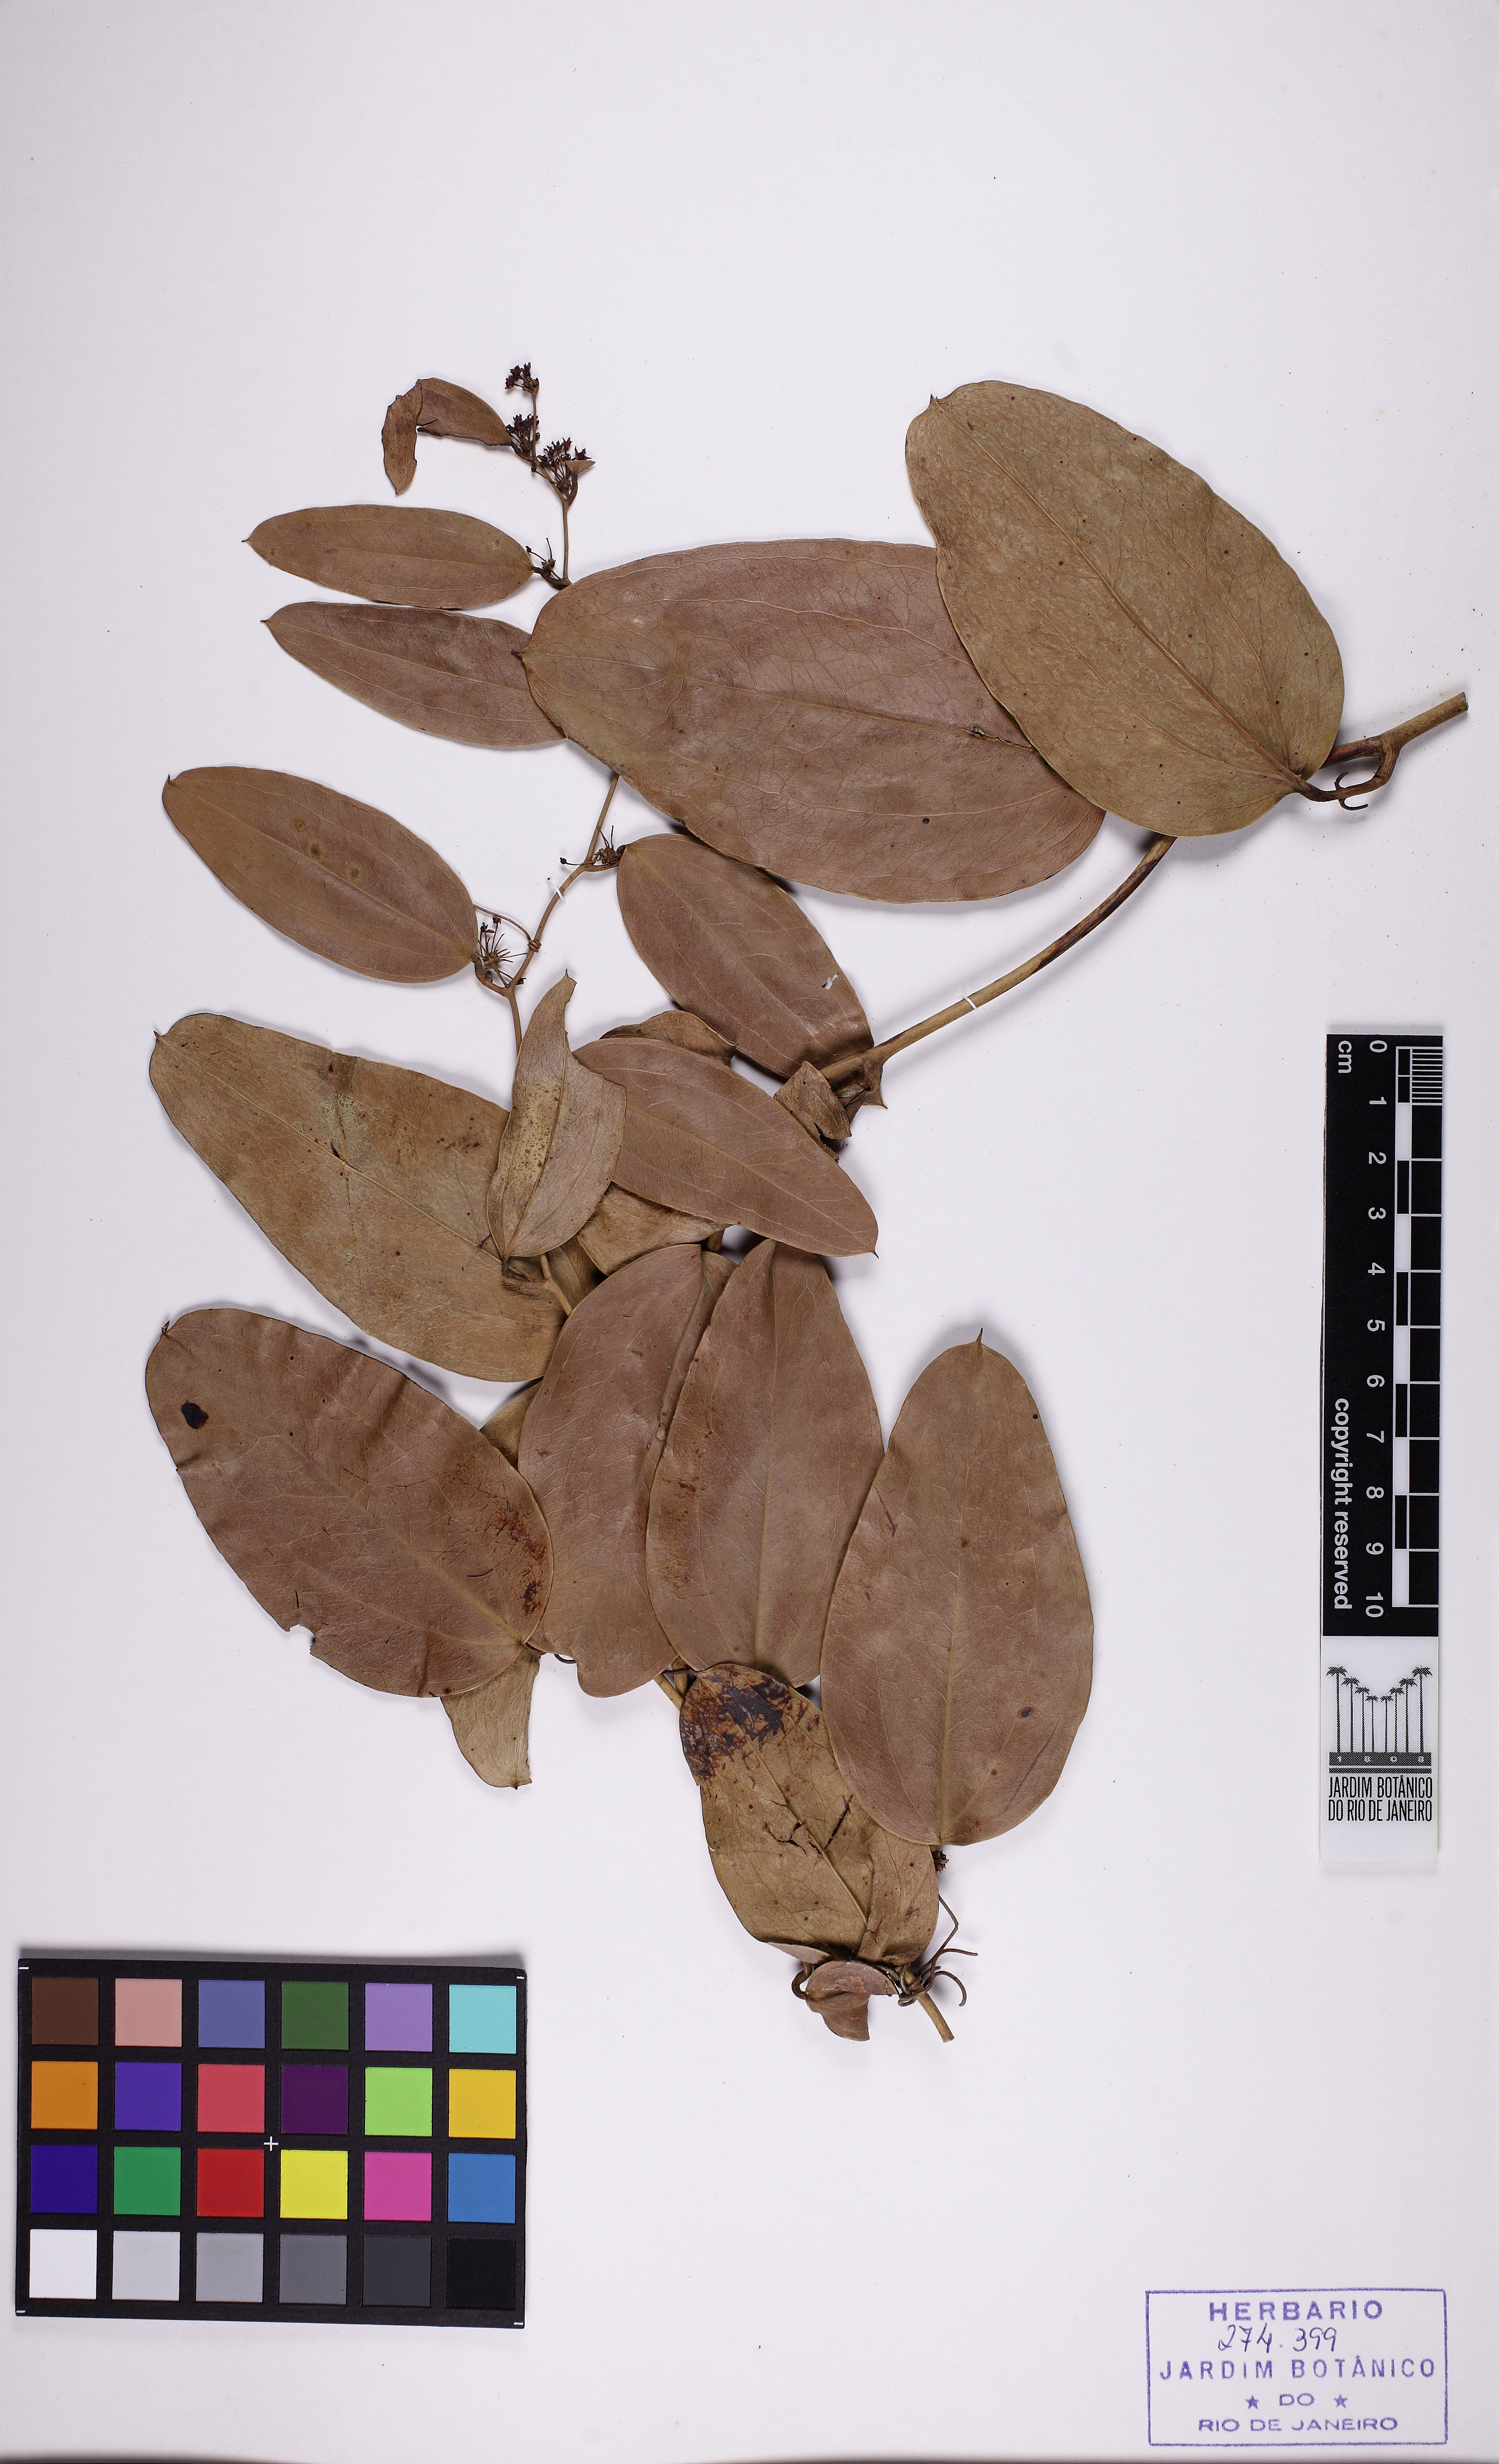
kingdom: Plantae
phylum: Tracheophyta
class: Liliopsida
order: Liliales
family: Smilacaceae
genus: Smilax
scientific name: Smilax elastica
